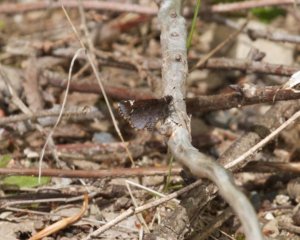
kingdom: Animalia
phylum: Arthropoda
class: Insecta
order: Lepidoptera
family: Hesperiidae
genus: Mastor
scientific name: Mastor vialis
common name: Common Roadside-Skipper
